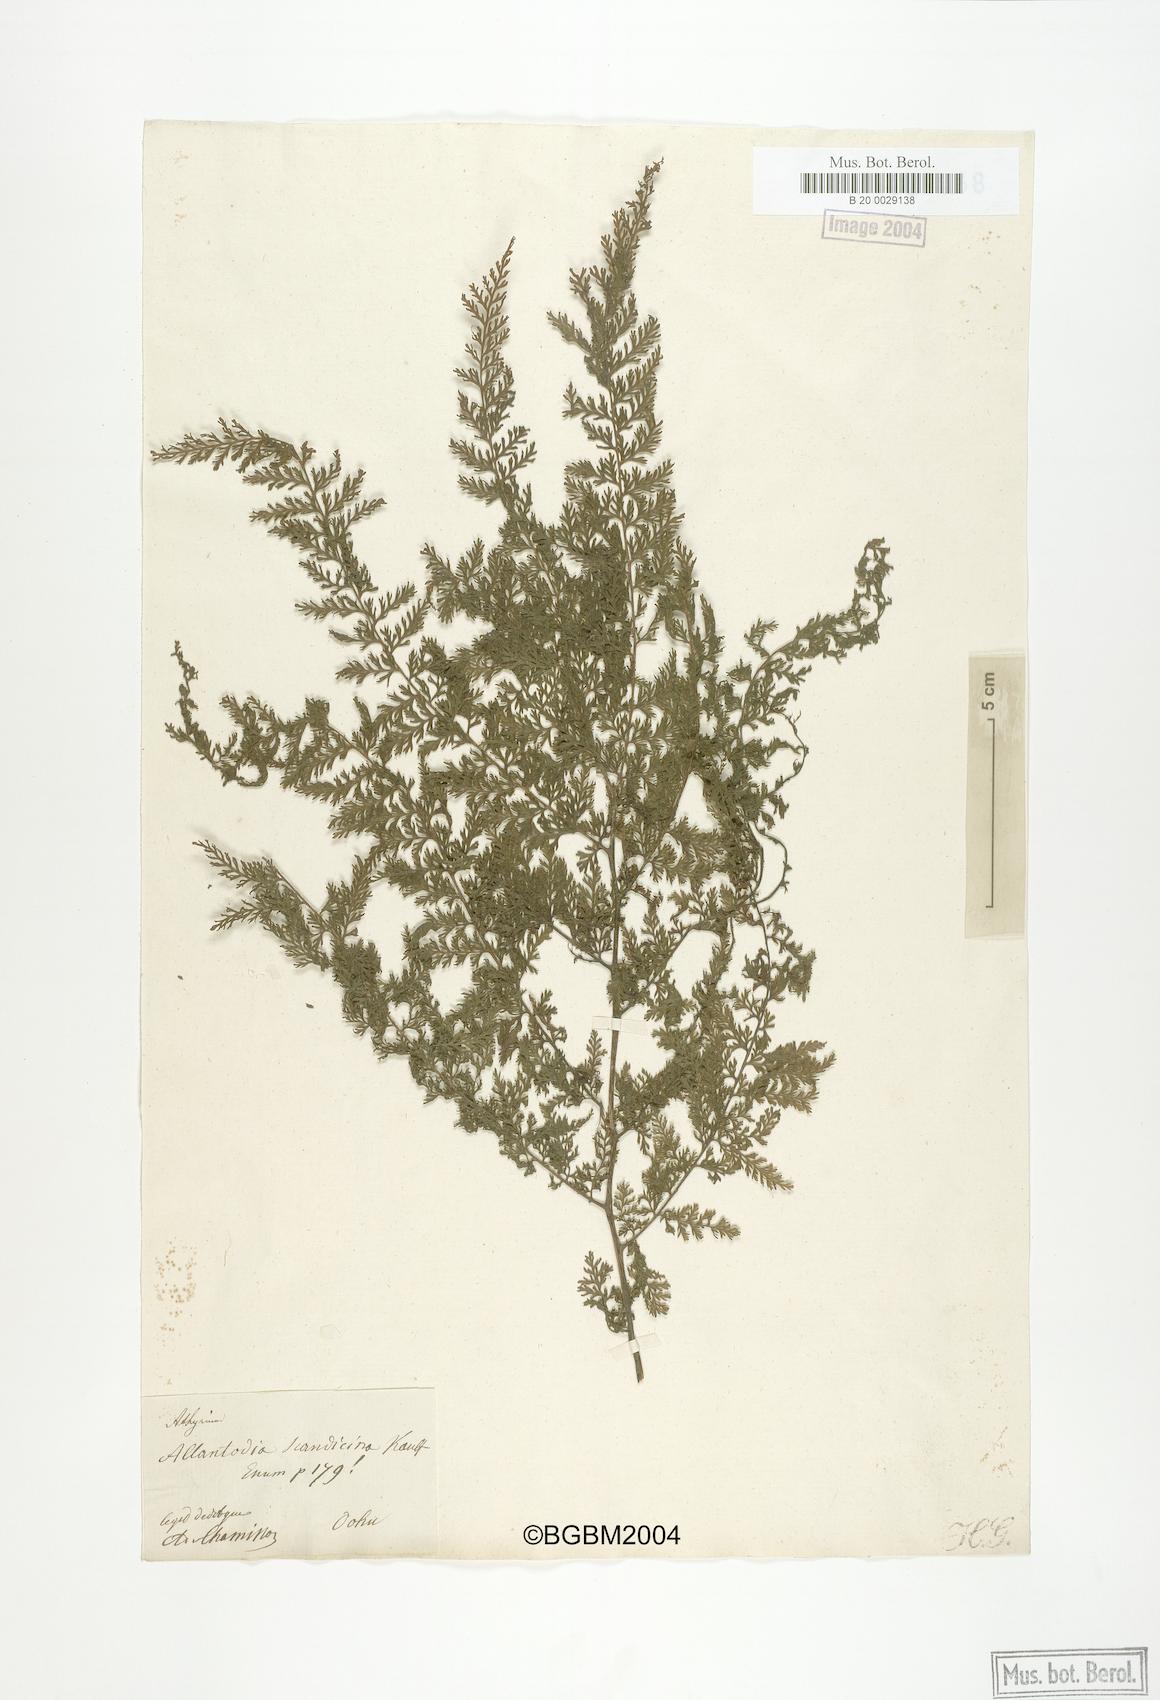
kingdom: Plantae
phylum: Tracheophyta
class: Polypodiopsida
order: Polypodiales
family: Athyriaceae
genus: Athyrium
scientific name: Athyrium scandicinum
